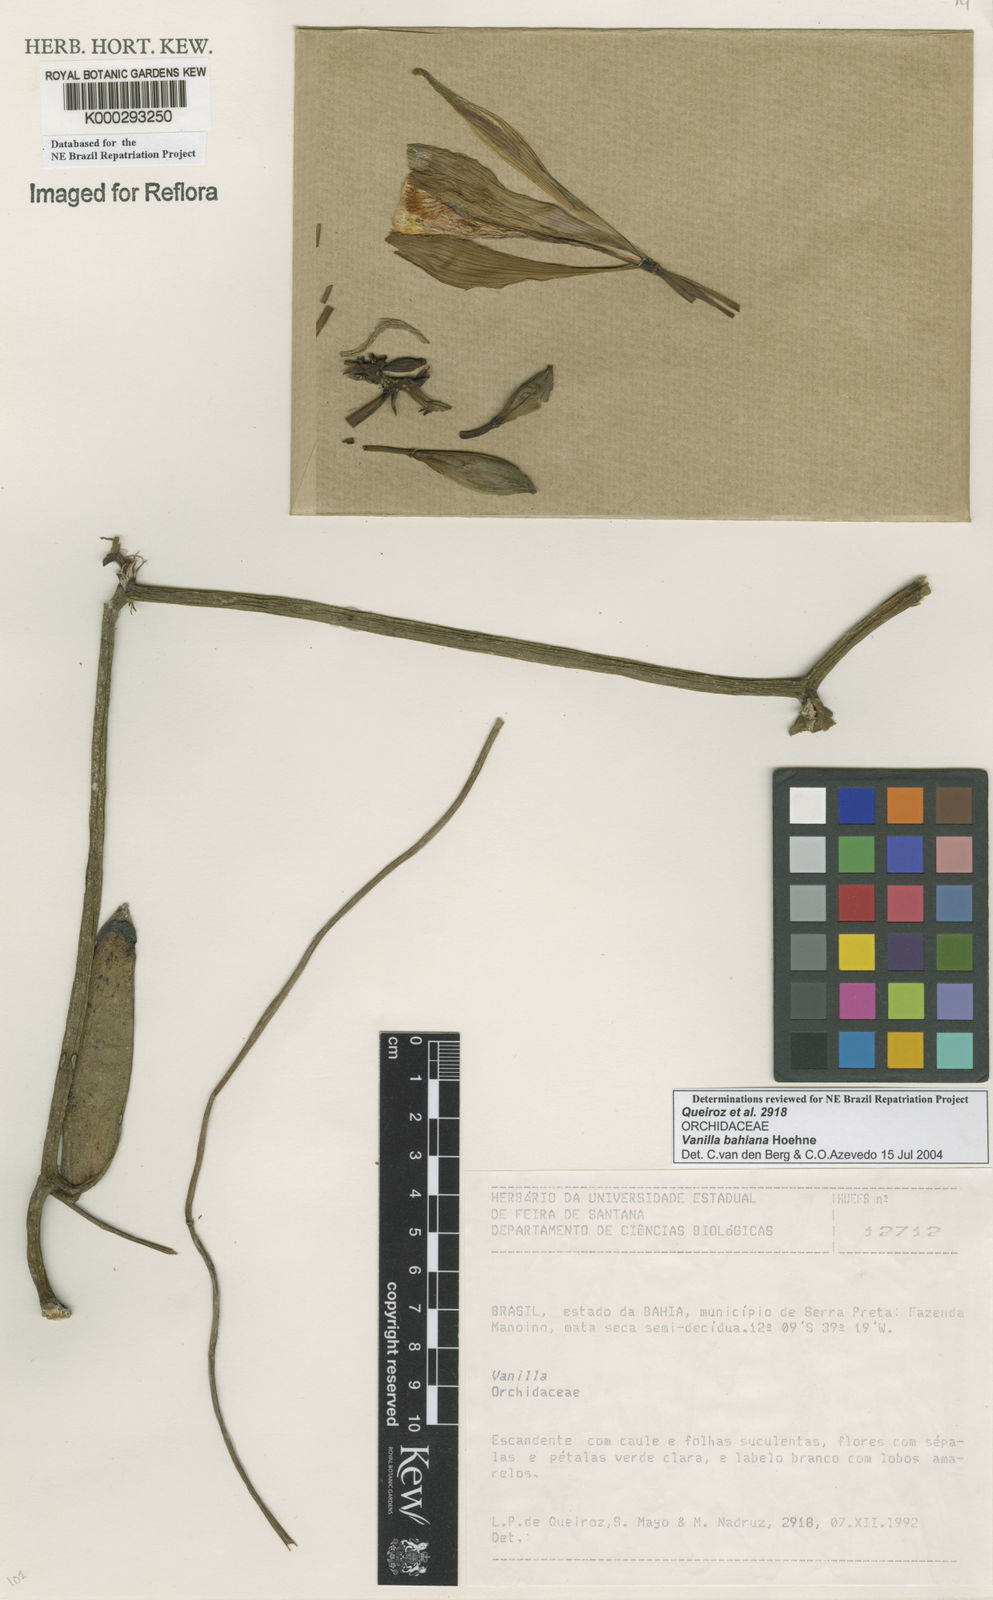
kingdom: Plantae
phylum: Tracheophyta
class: Liliopsida
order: Asparagales
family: Orchidaceae
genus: Vanilla
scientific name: Vanilla phaeantha
